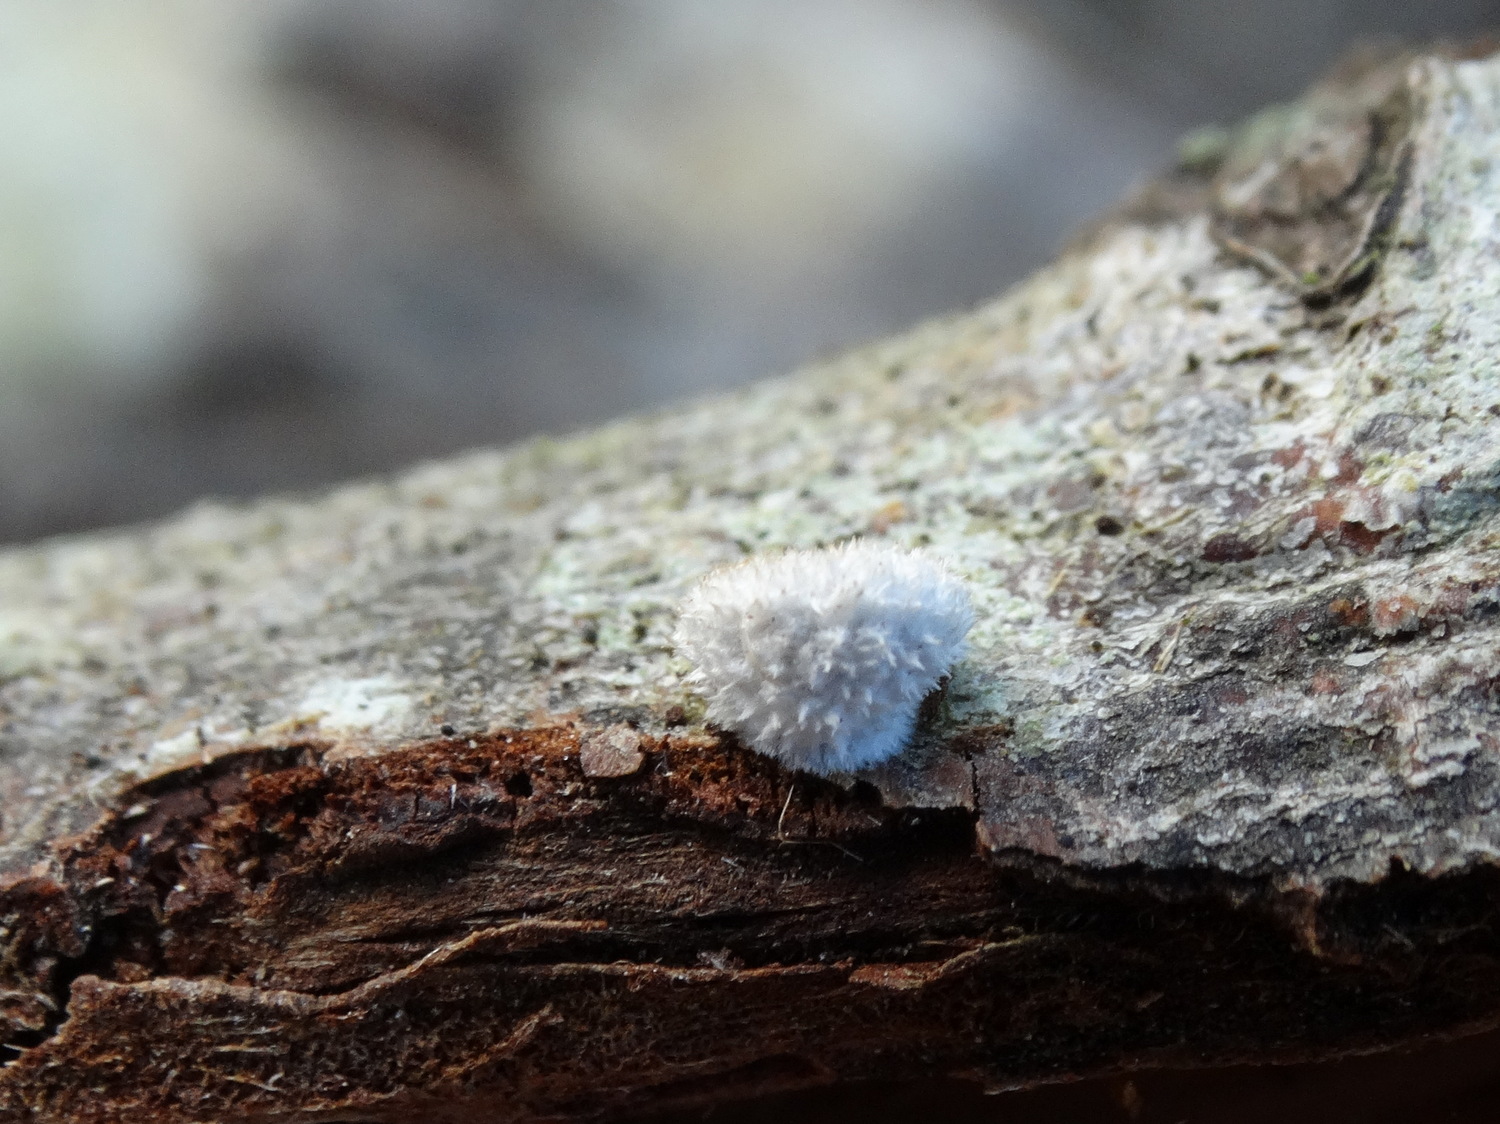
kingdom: Fungi
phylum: Basidiomycota
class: Agaricomycetes
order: Agaricales
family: Schizophyllaceae
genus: Schizophyllum
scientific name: Schizophyllum commune
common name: kløvblad
